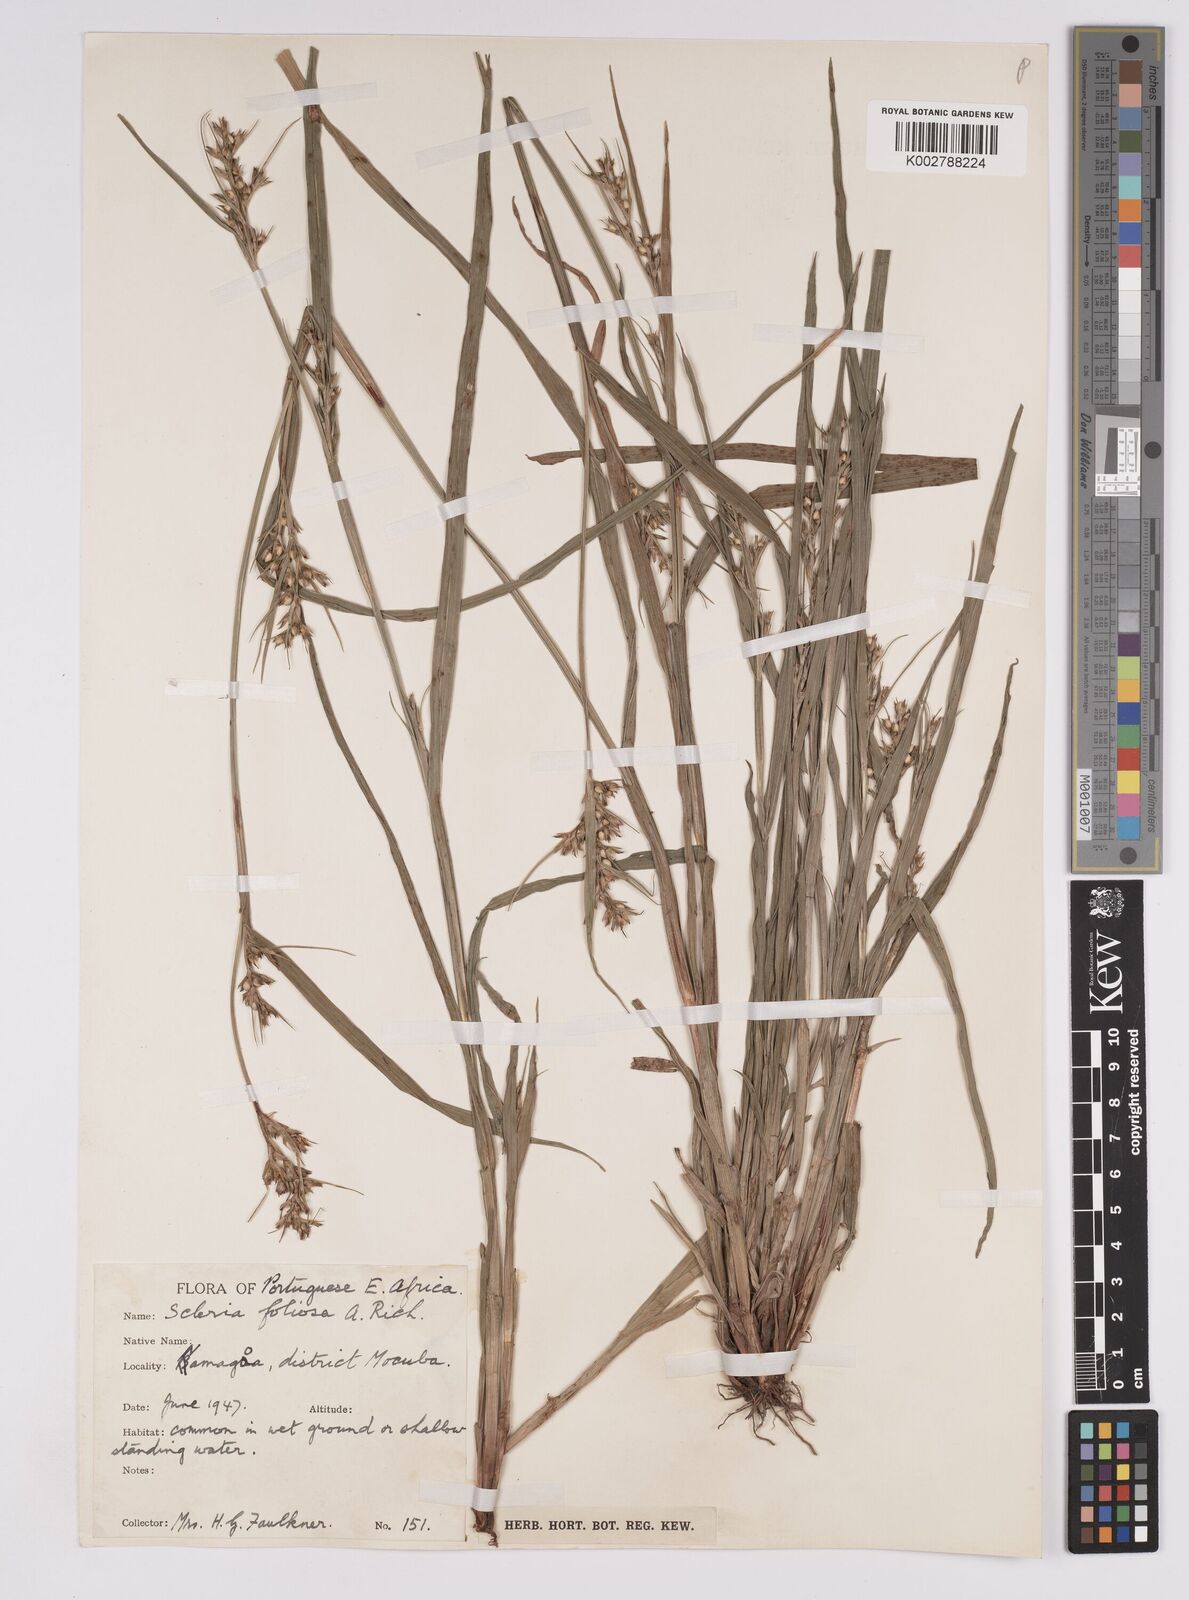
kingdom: Plantae
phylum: Tracheophyta
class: Liliopsida
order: Poales
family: Cyperaceae
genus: Scleria
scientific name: Scleria foliosa
